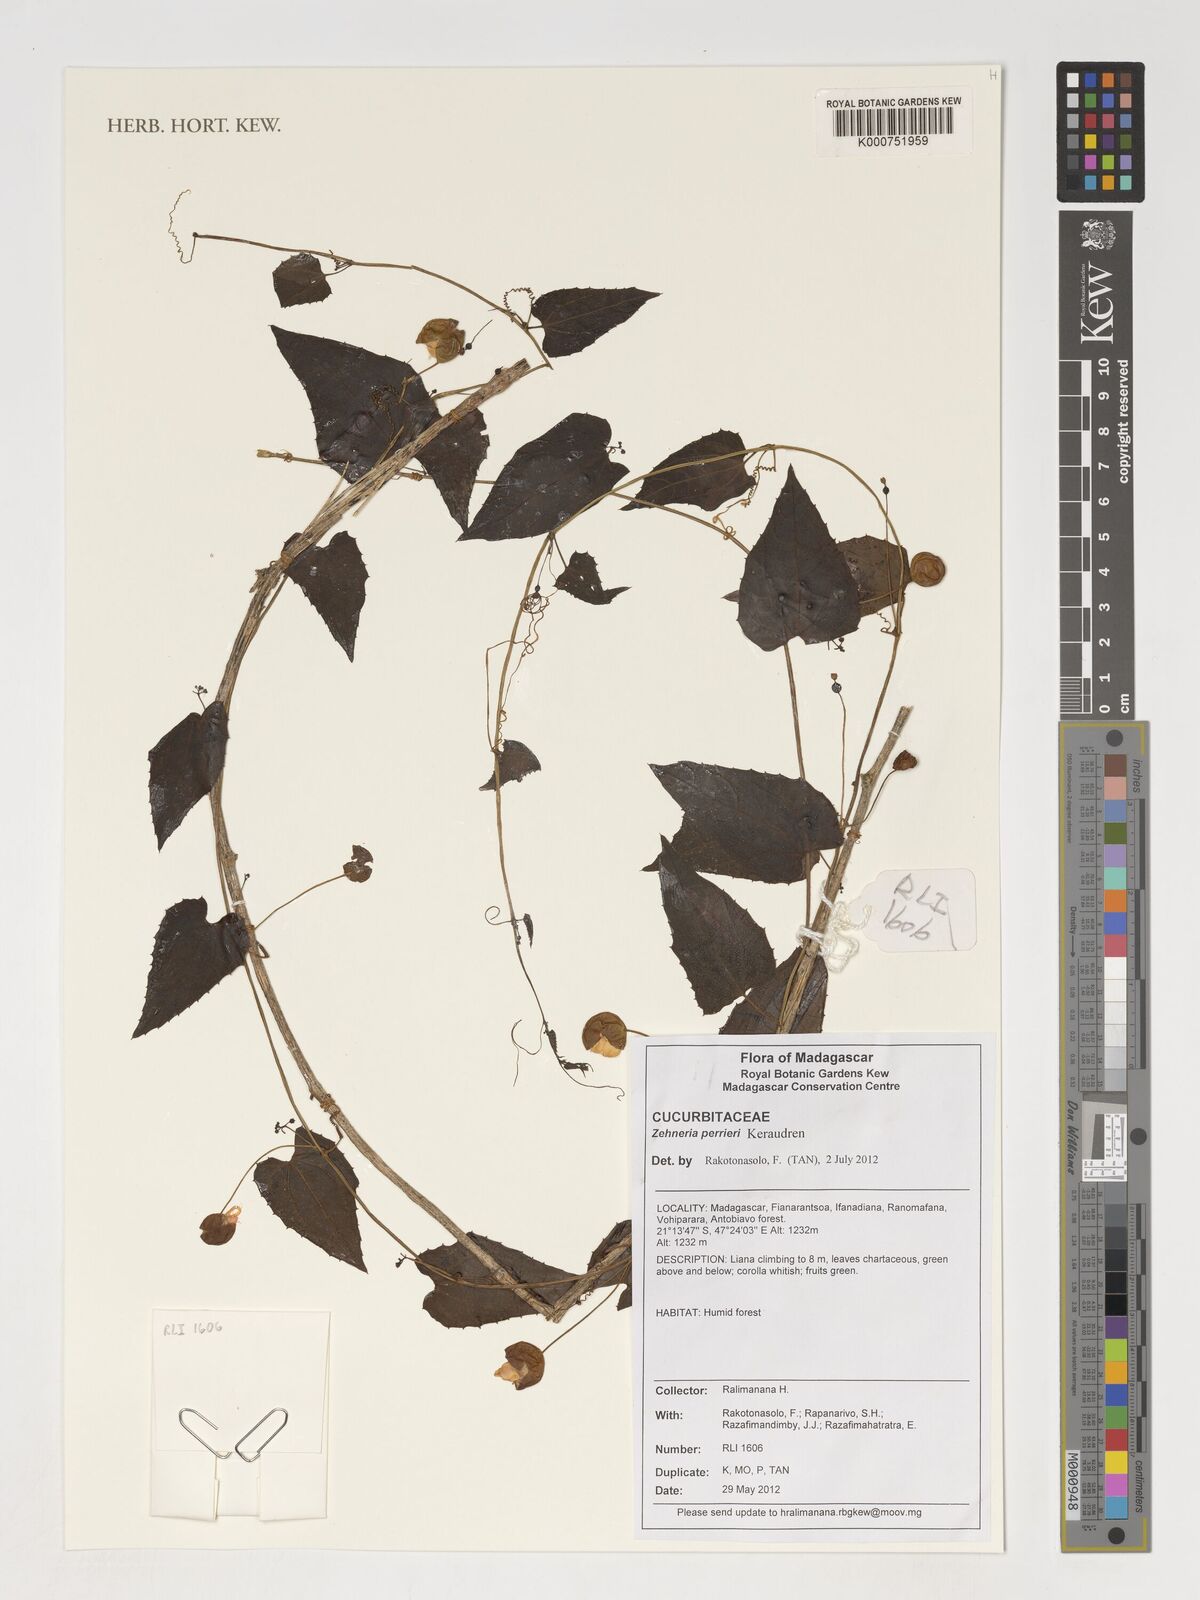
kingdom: Plantae
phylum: Tracheophyta
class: Magnoliopsida
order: Cucurbitales
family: Cucurbitaceae
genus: Zehneria
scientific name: Zehneria perrieri
